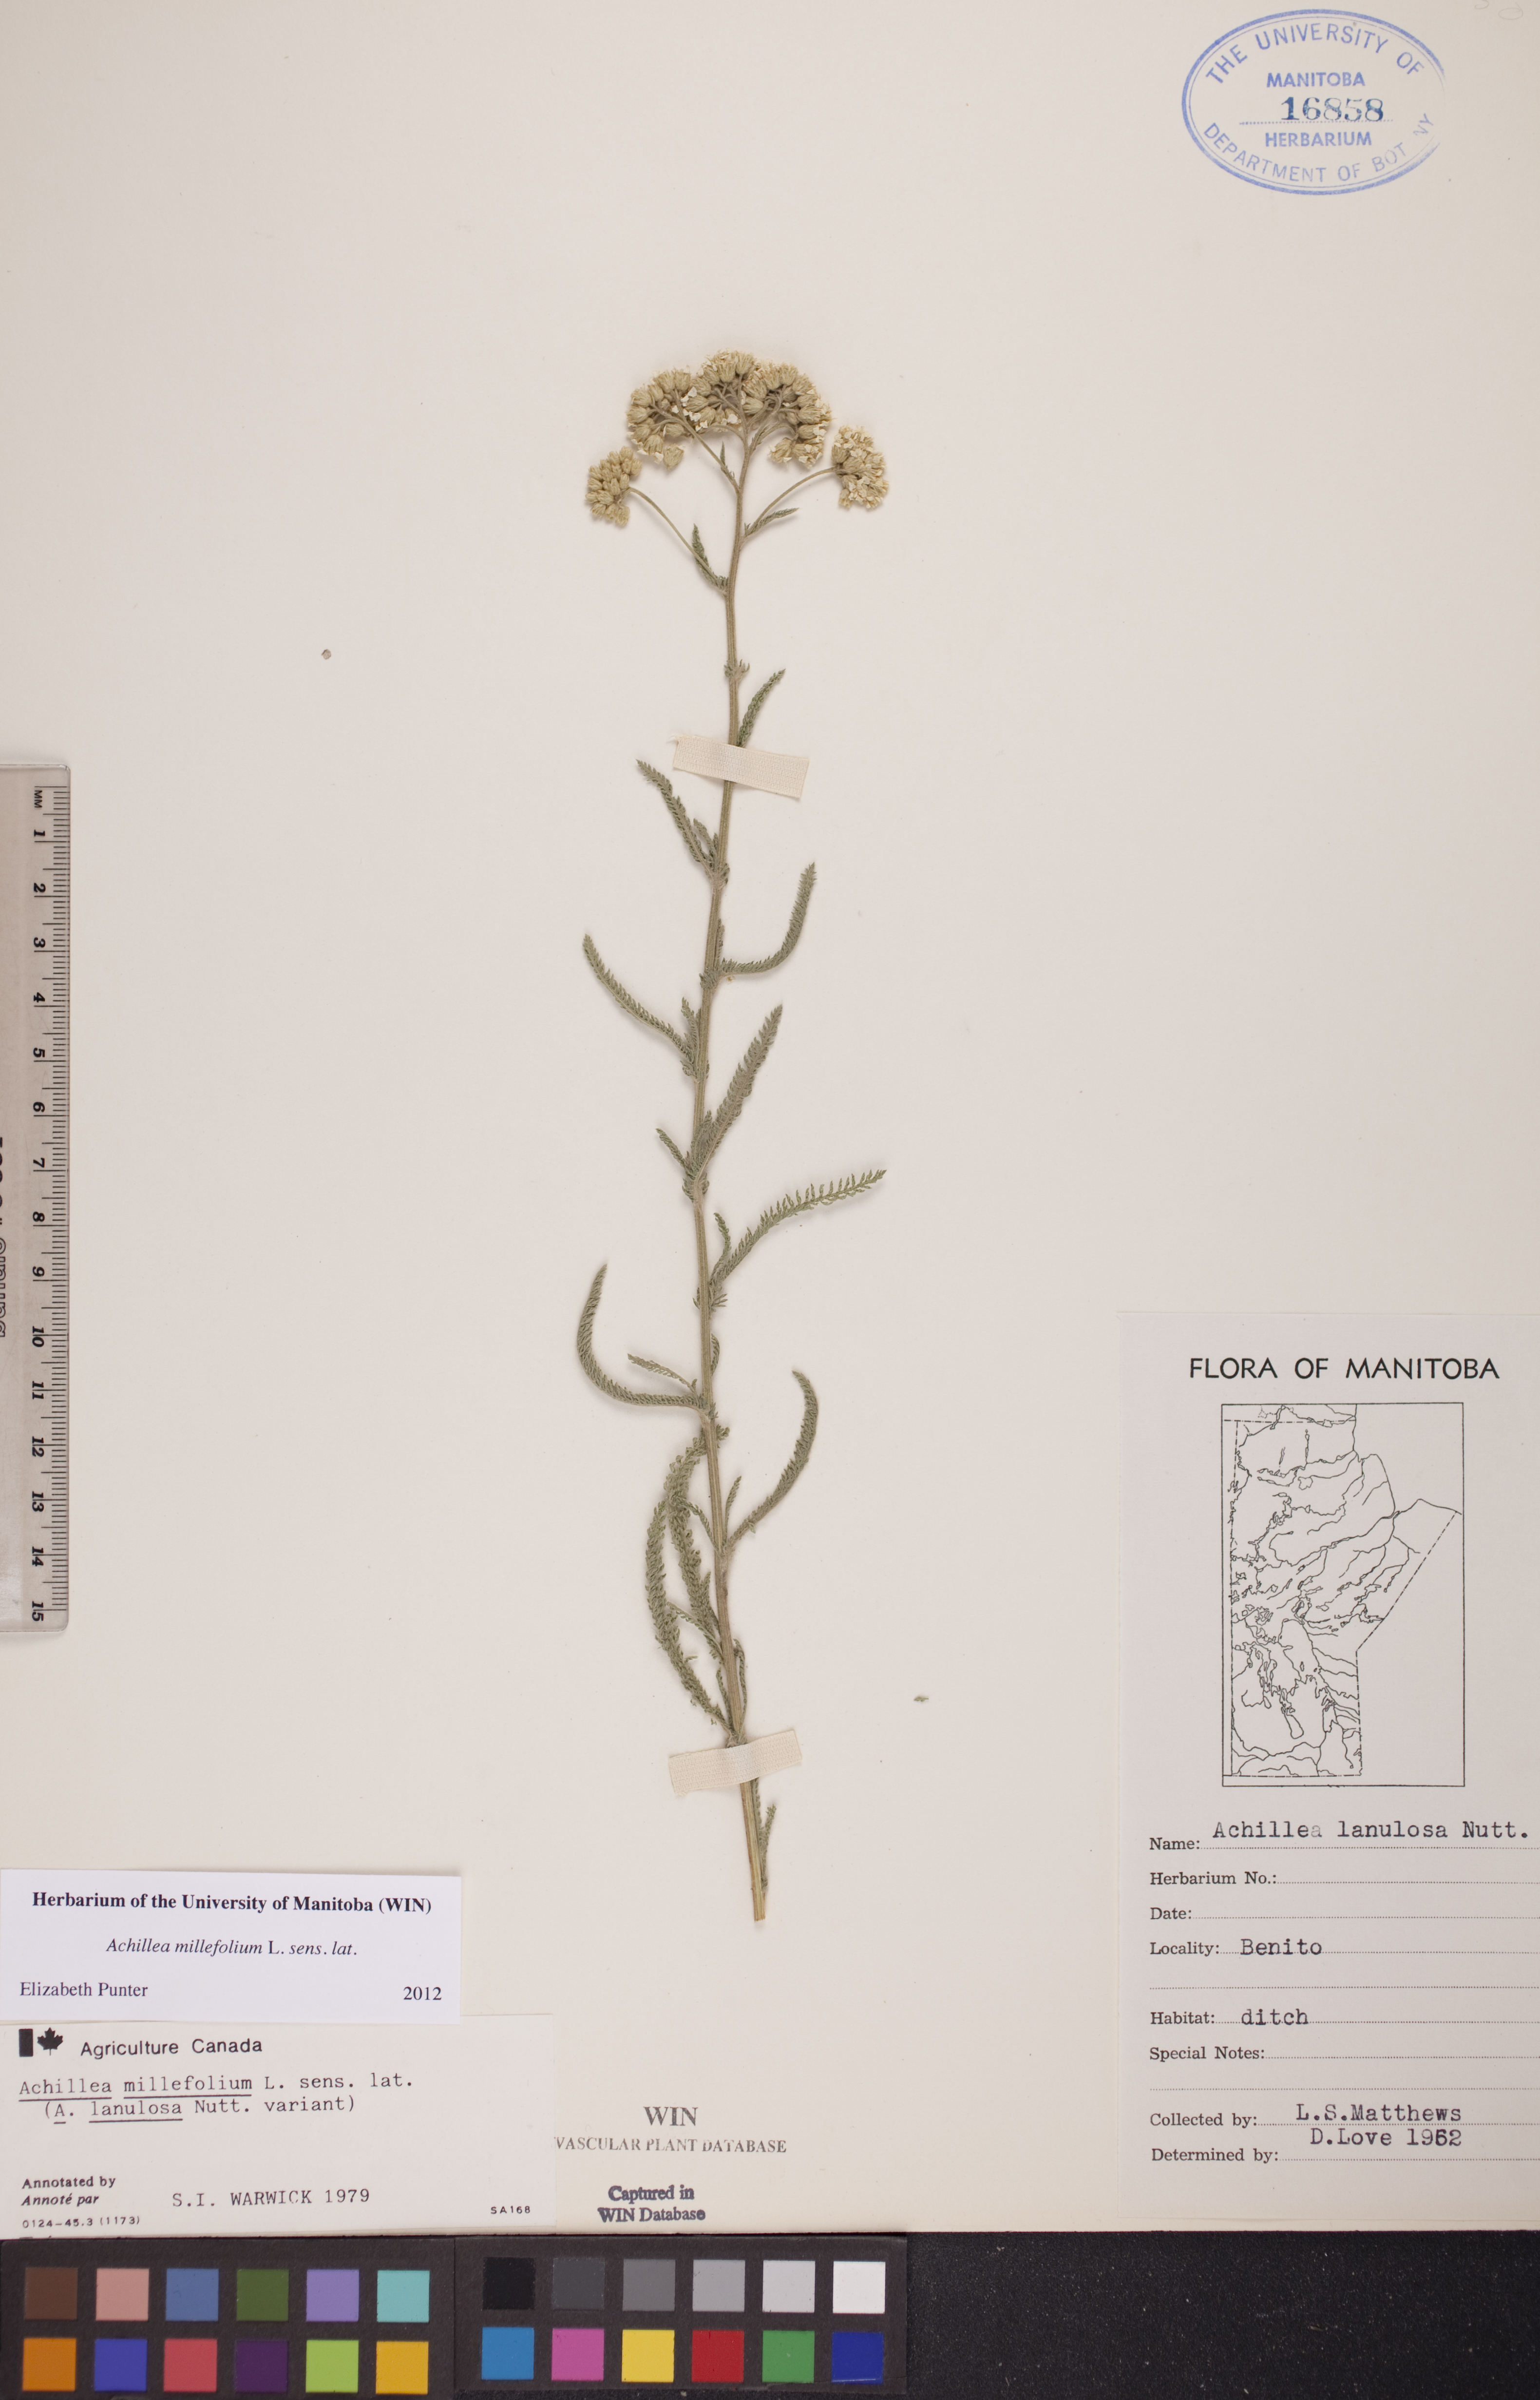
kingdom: Plantae
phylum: Tracheophyta
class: Magnoliopsida
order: Asterales
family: Asteraceae
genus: Achillea
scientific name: Achillea millefolium
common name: Yarrow
